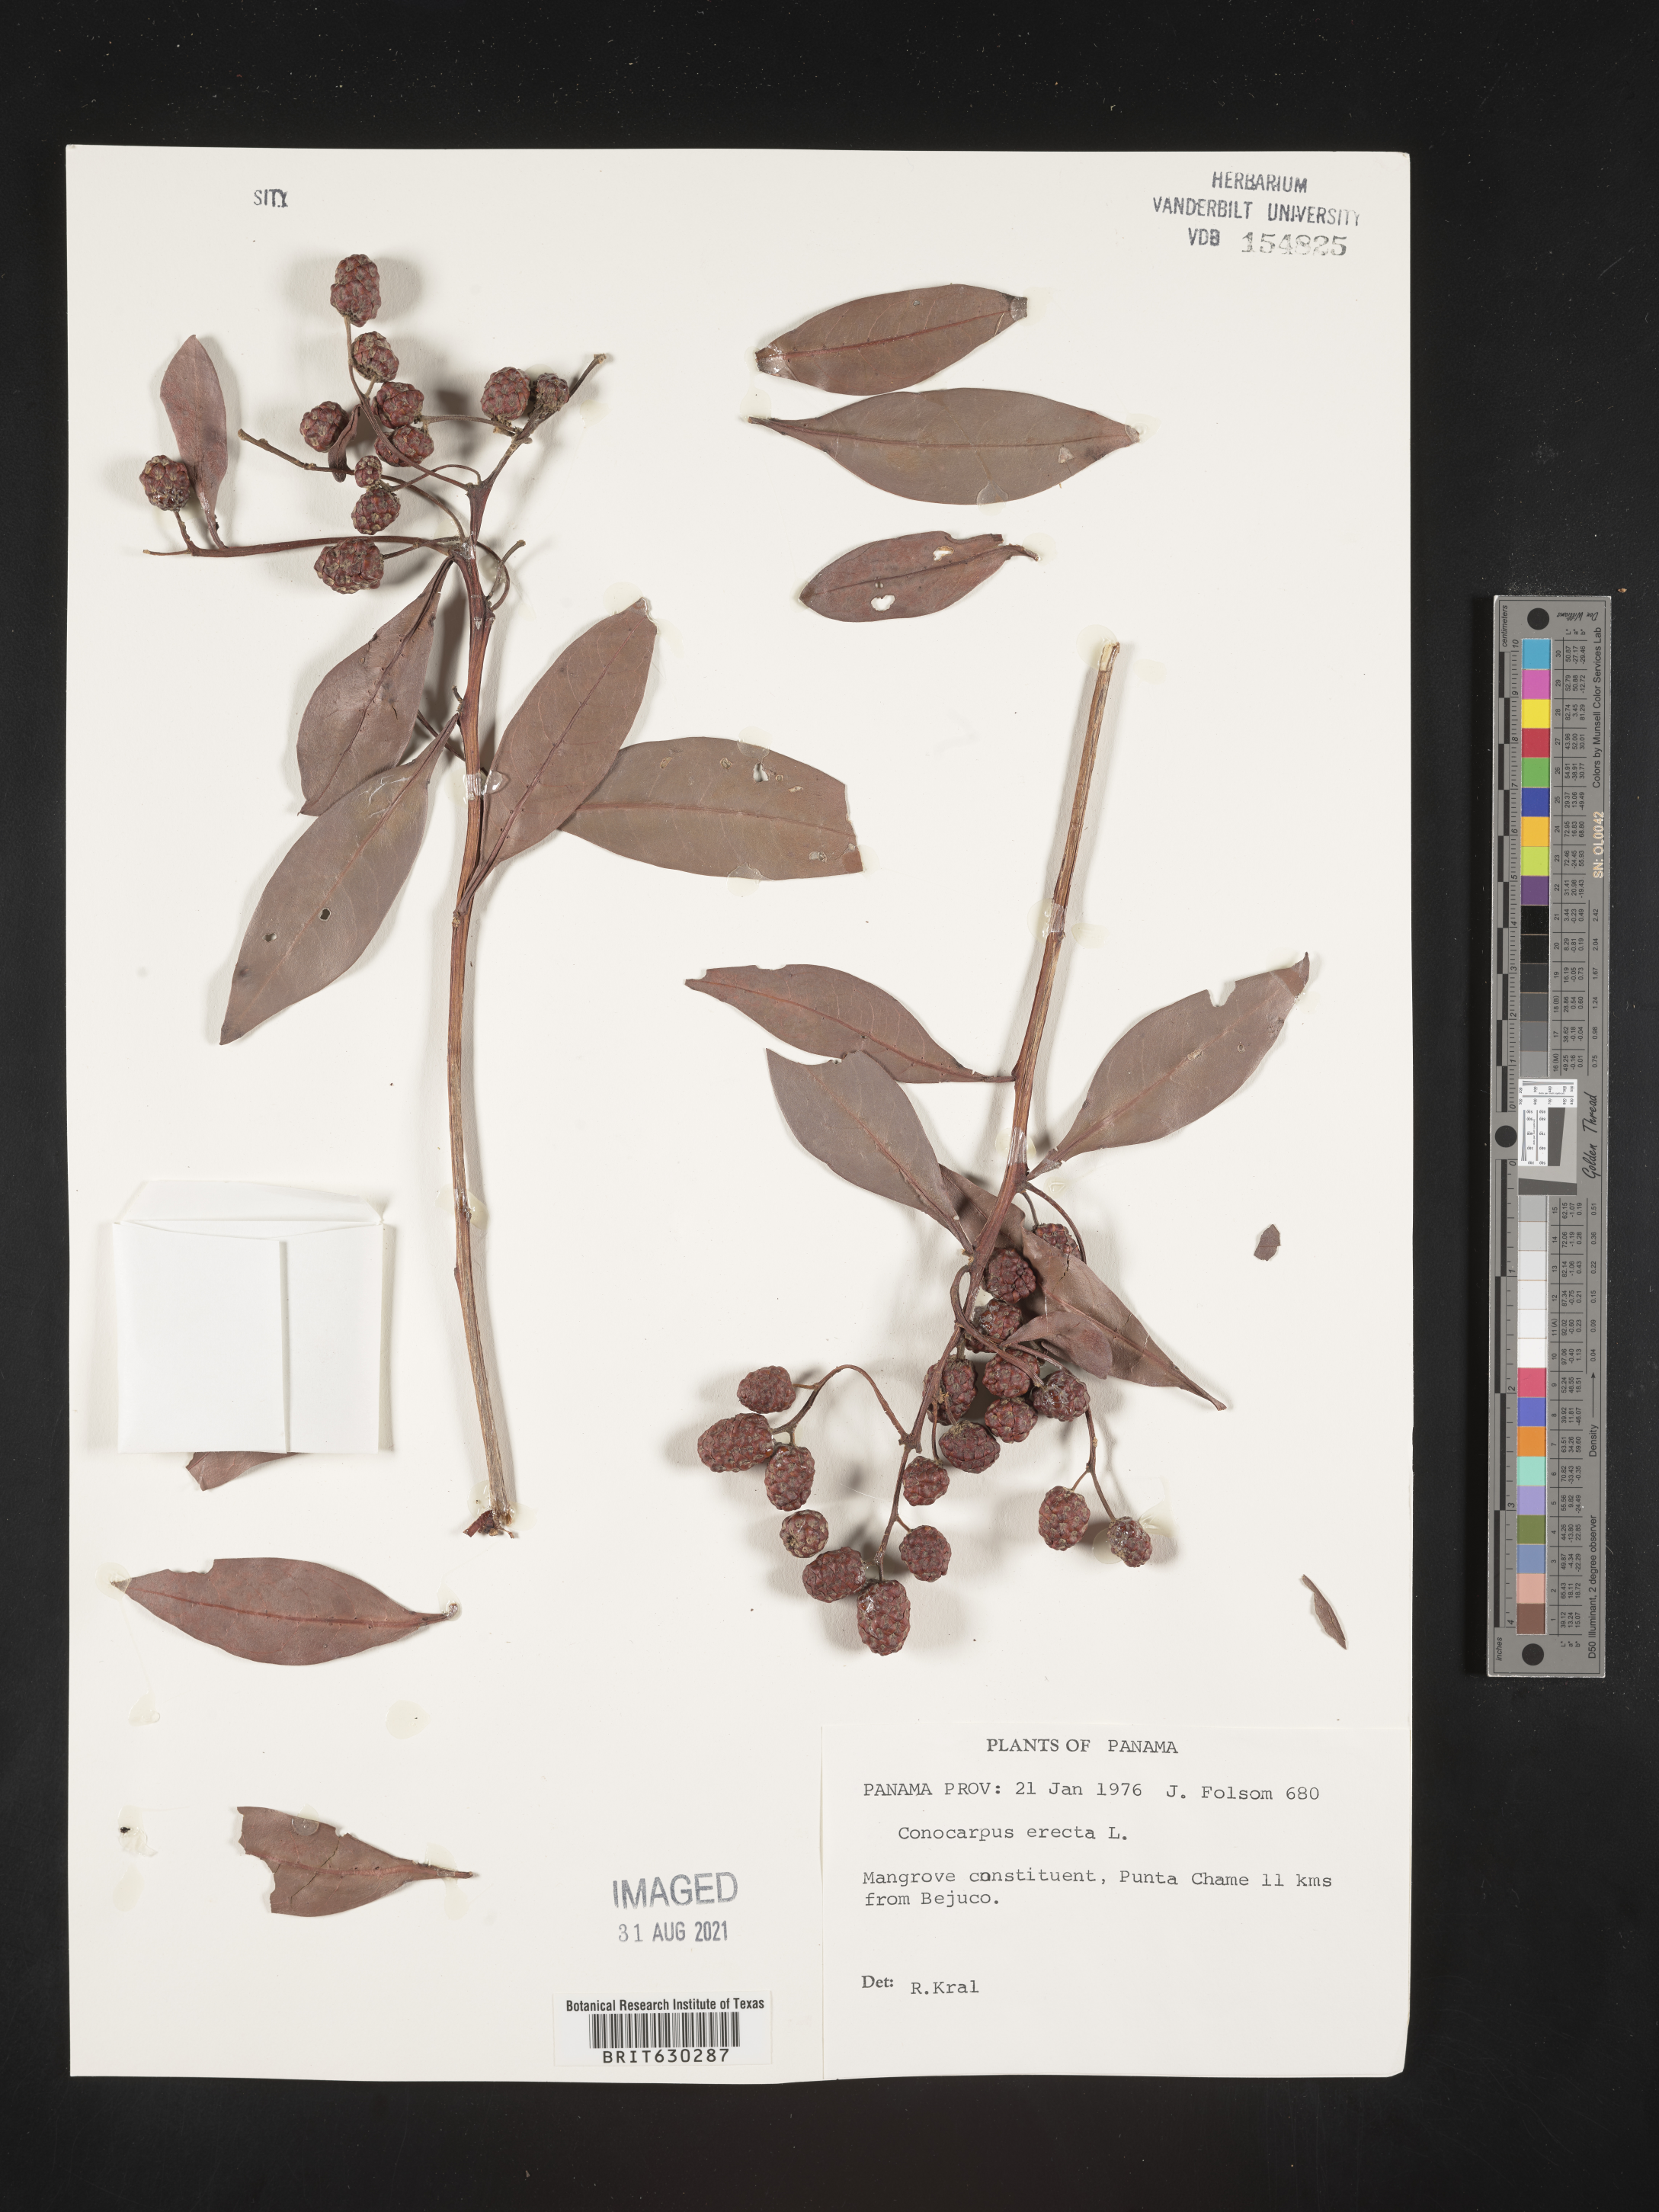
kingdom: Plantae
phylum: Tracheophyta
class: Magnoliopsida
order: Myrtales
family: Combretaceae
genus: Conocarpus
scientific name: Conocarpus erectus
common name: Button mangrove
